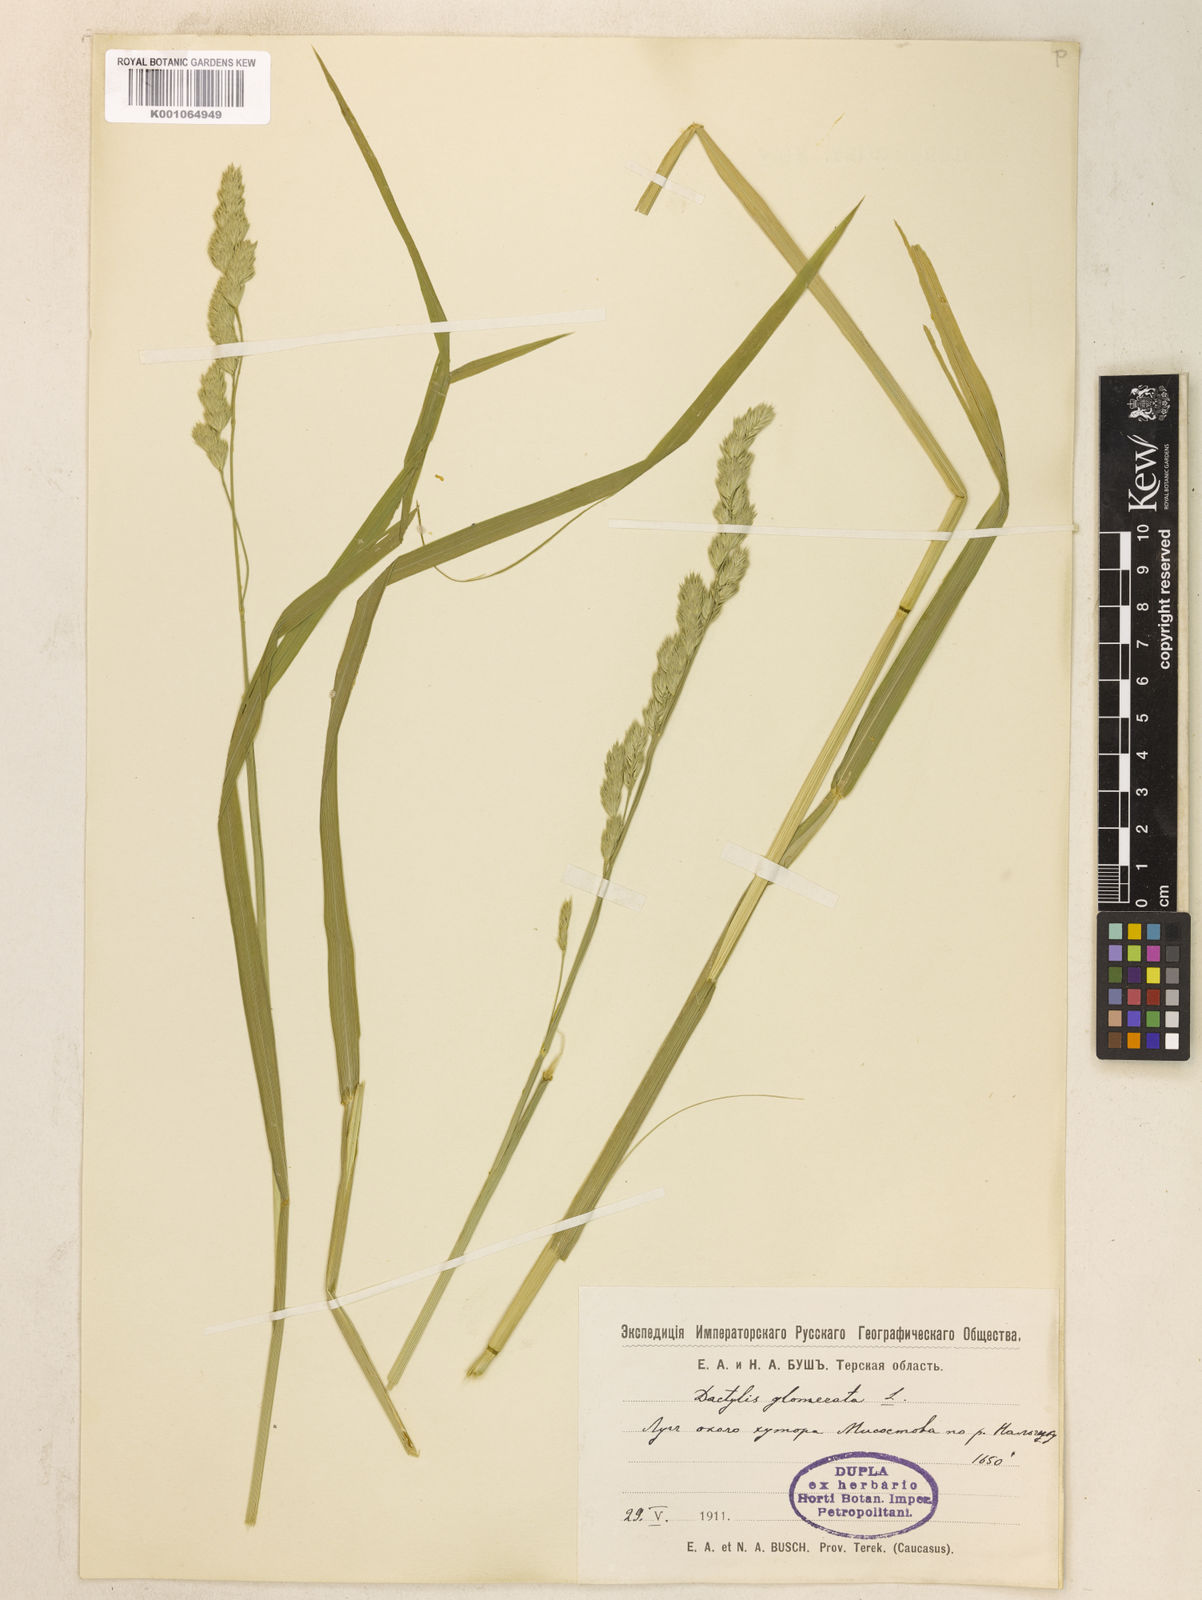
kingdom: Plantae
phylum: Tracheophyta
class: Liliopsida
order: Poales
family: Poaceae
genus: Dactylis
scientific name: Dactylis glomerata
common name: Orchardgrass
